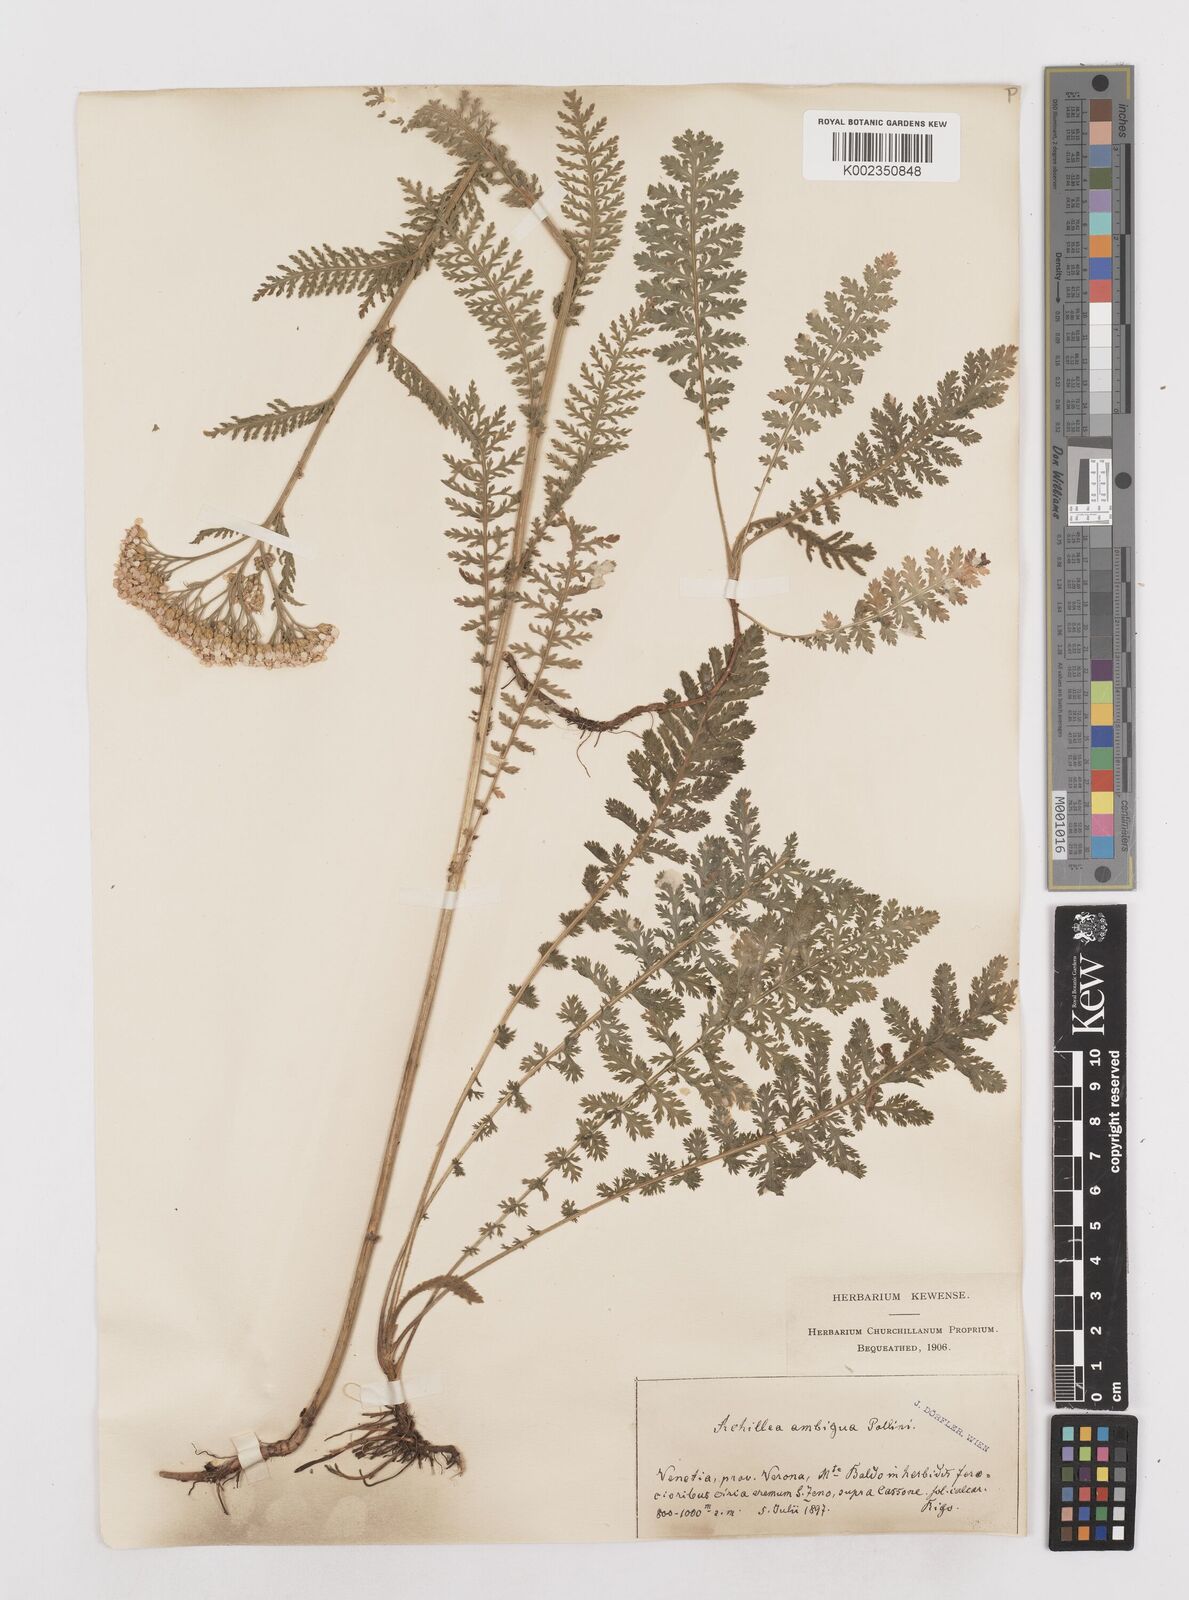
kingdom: Plantae
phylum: Tracheophyta
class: Magnoliopsida
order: Asterales
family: Asteraceae
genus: Achillea
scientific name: Achillea distans
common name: Tall yarrow
